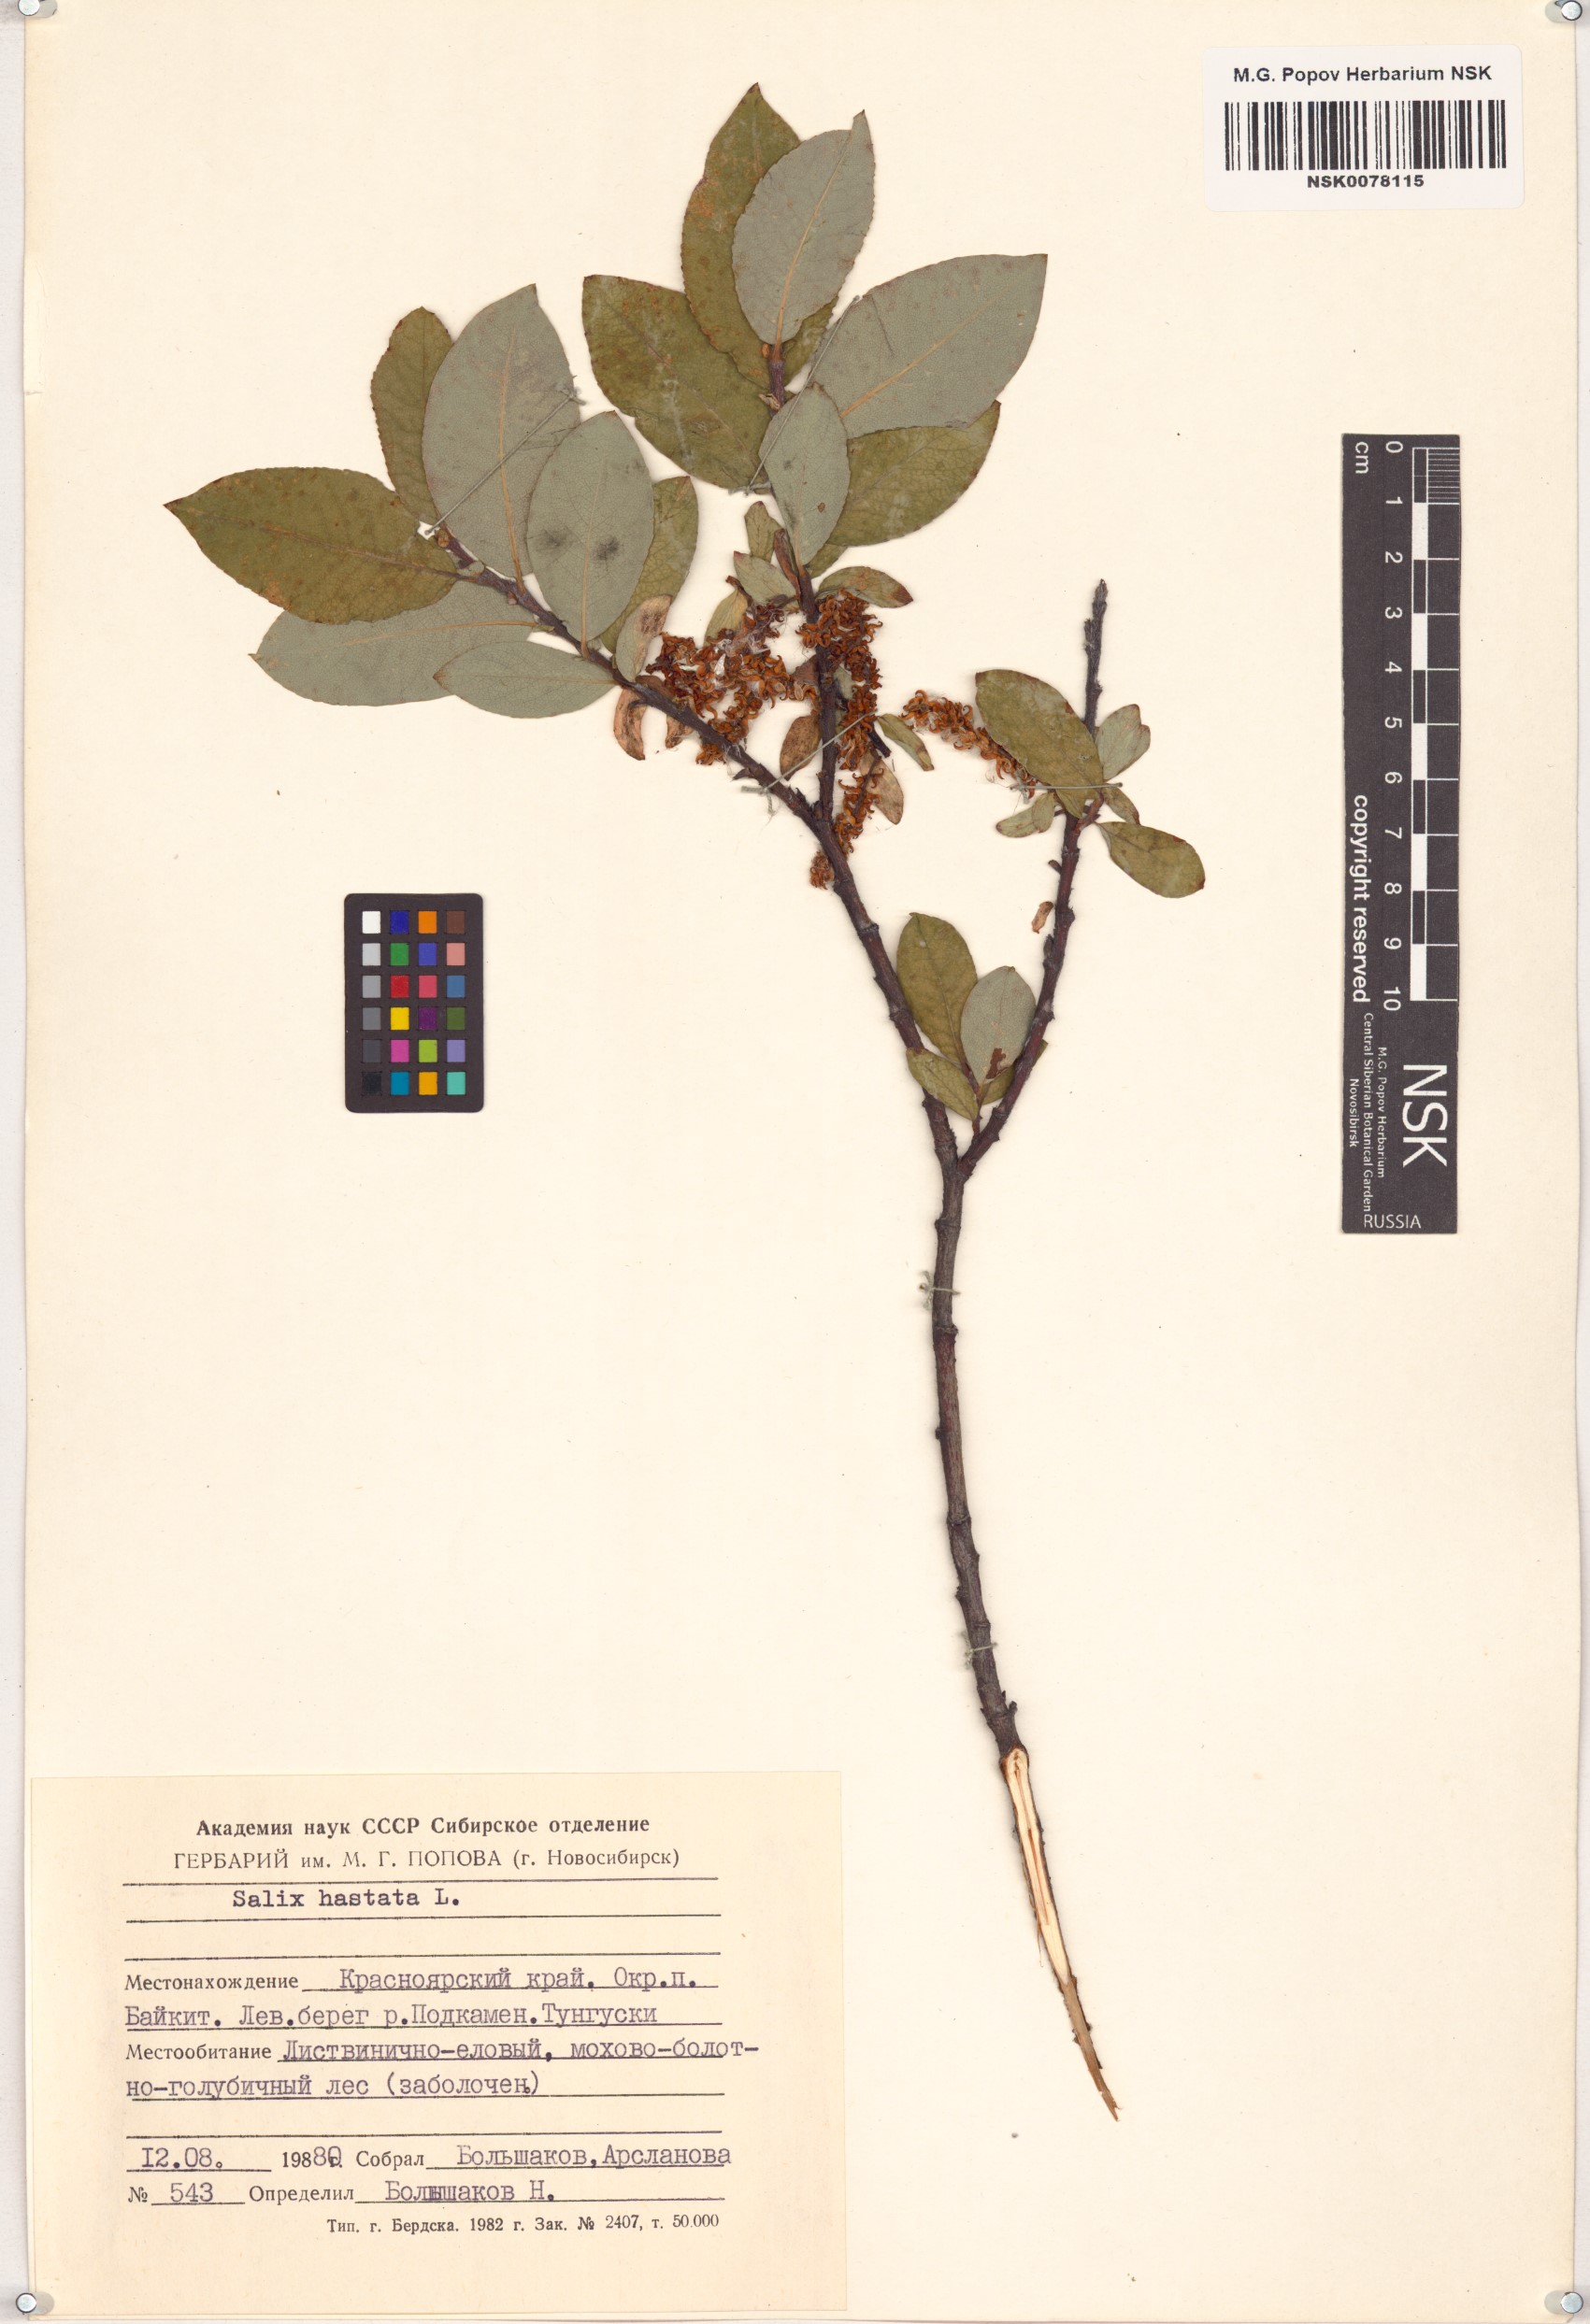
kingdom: Plantae
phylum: Tracheophyta
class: Magnoliopsida
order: Malpighiales
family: Salicaceae
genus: Salix
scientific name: Salix hastata
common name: Halberd willow
